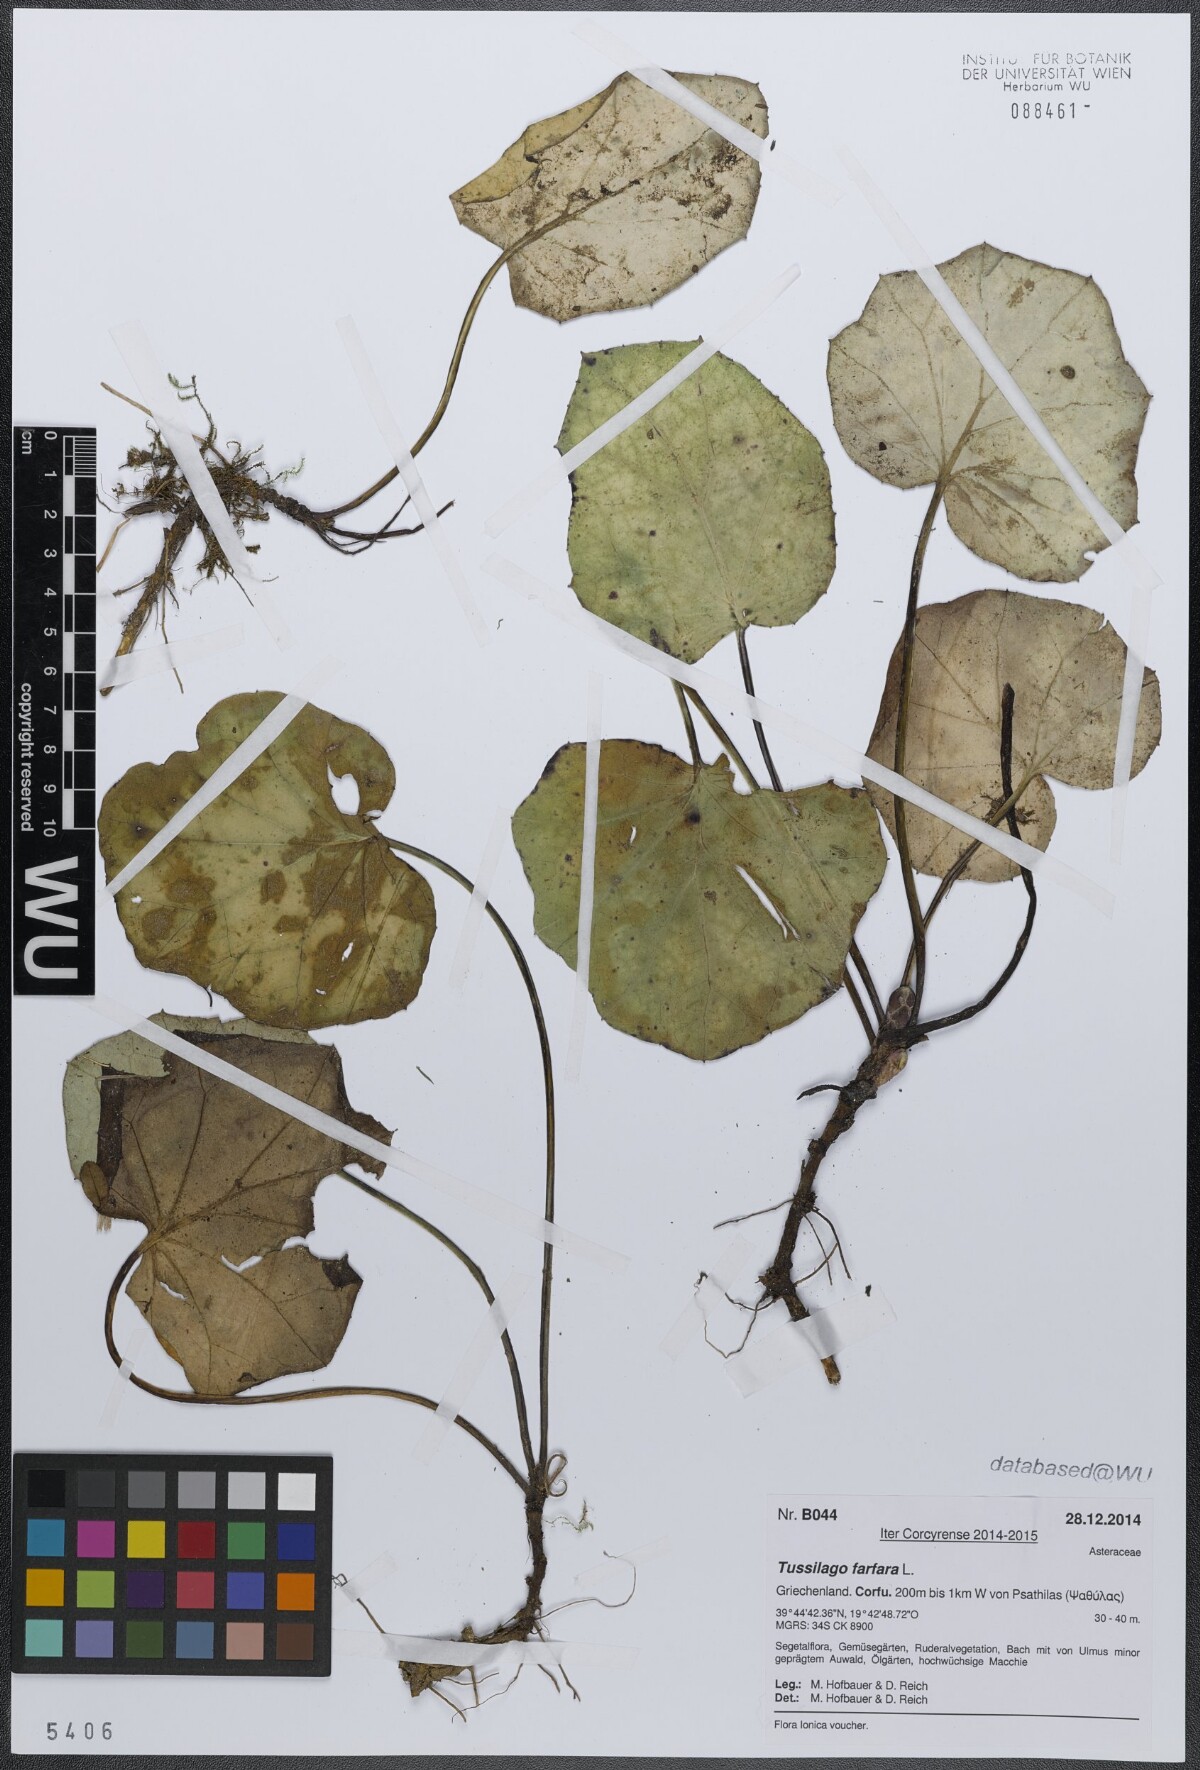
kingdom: Plantae
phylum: Tracheophyta
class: Magnoliopsida
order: Asterales
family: Asteraceae
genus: Tussilago
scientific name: Tussilago farfara
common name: Coltsfoot
